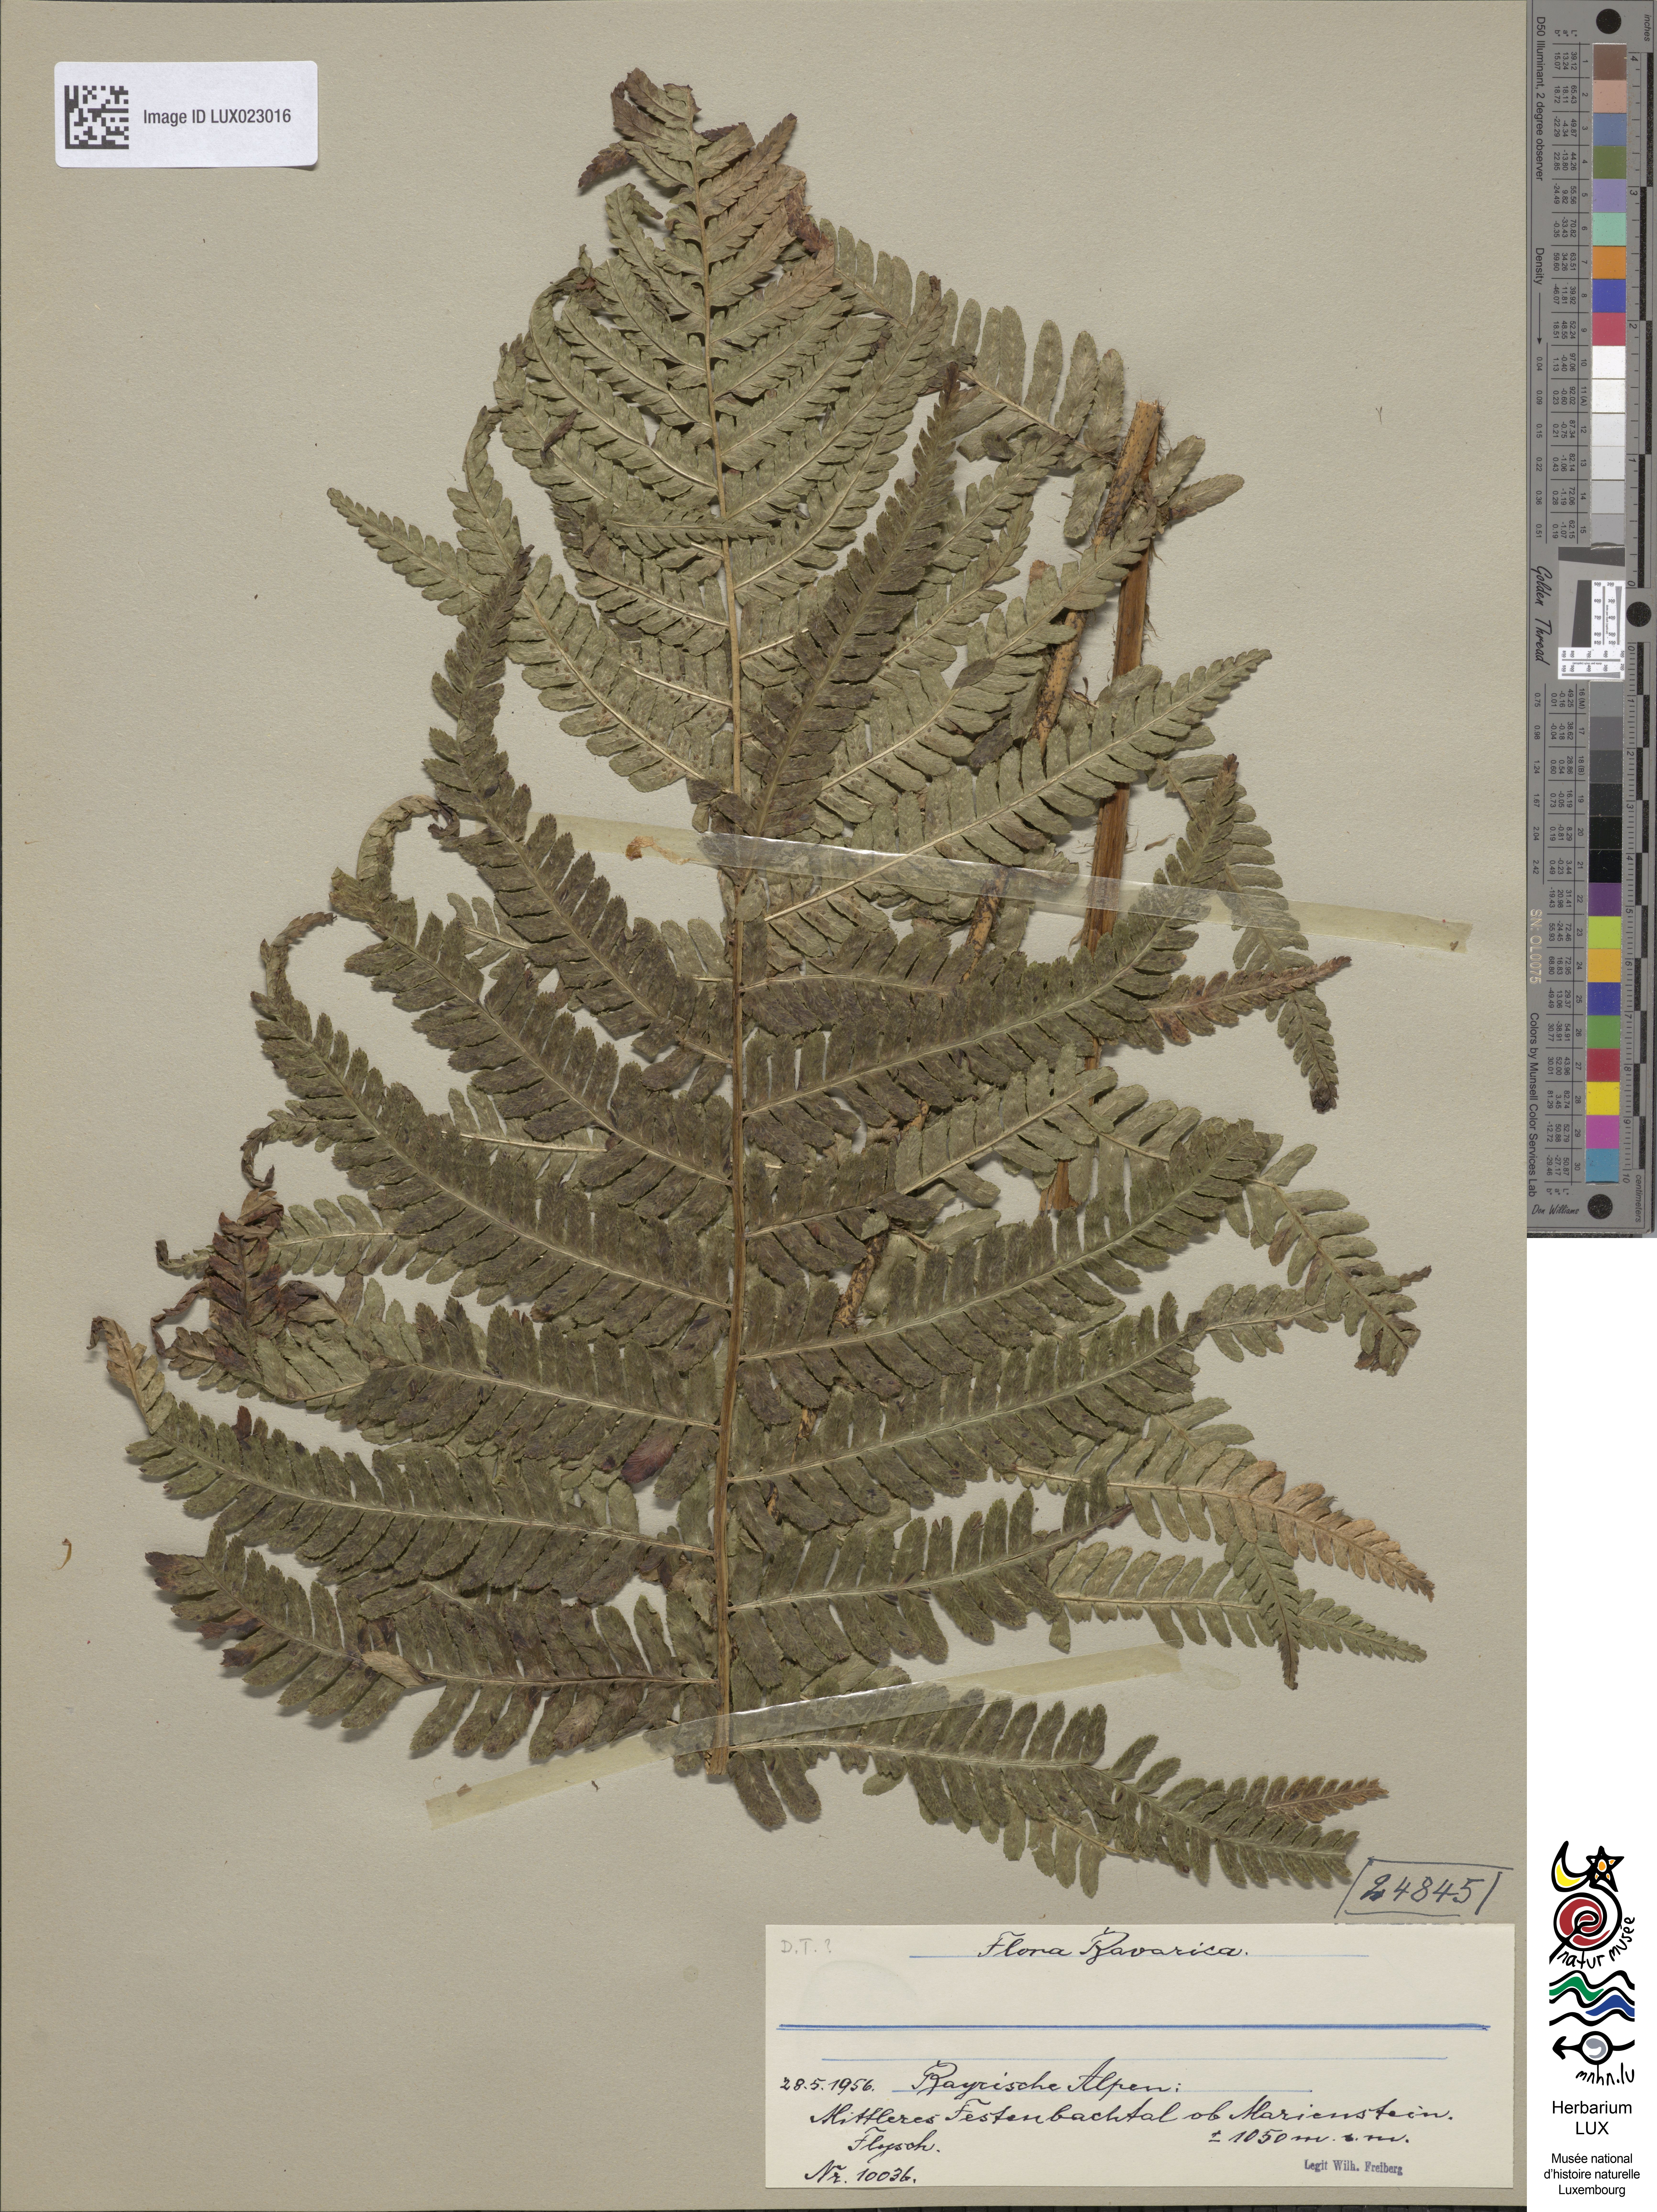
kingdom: Plantae
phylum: Tracheophyta
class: Polypodiopsida
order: Polypodiales
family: Dryopteridaceae
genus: Dryopteris
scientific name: Dryopteris borreri
